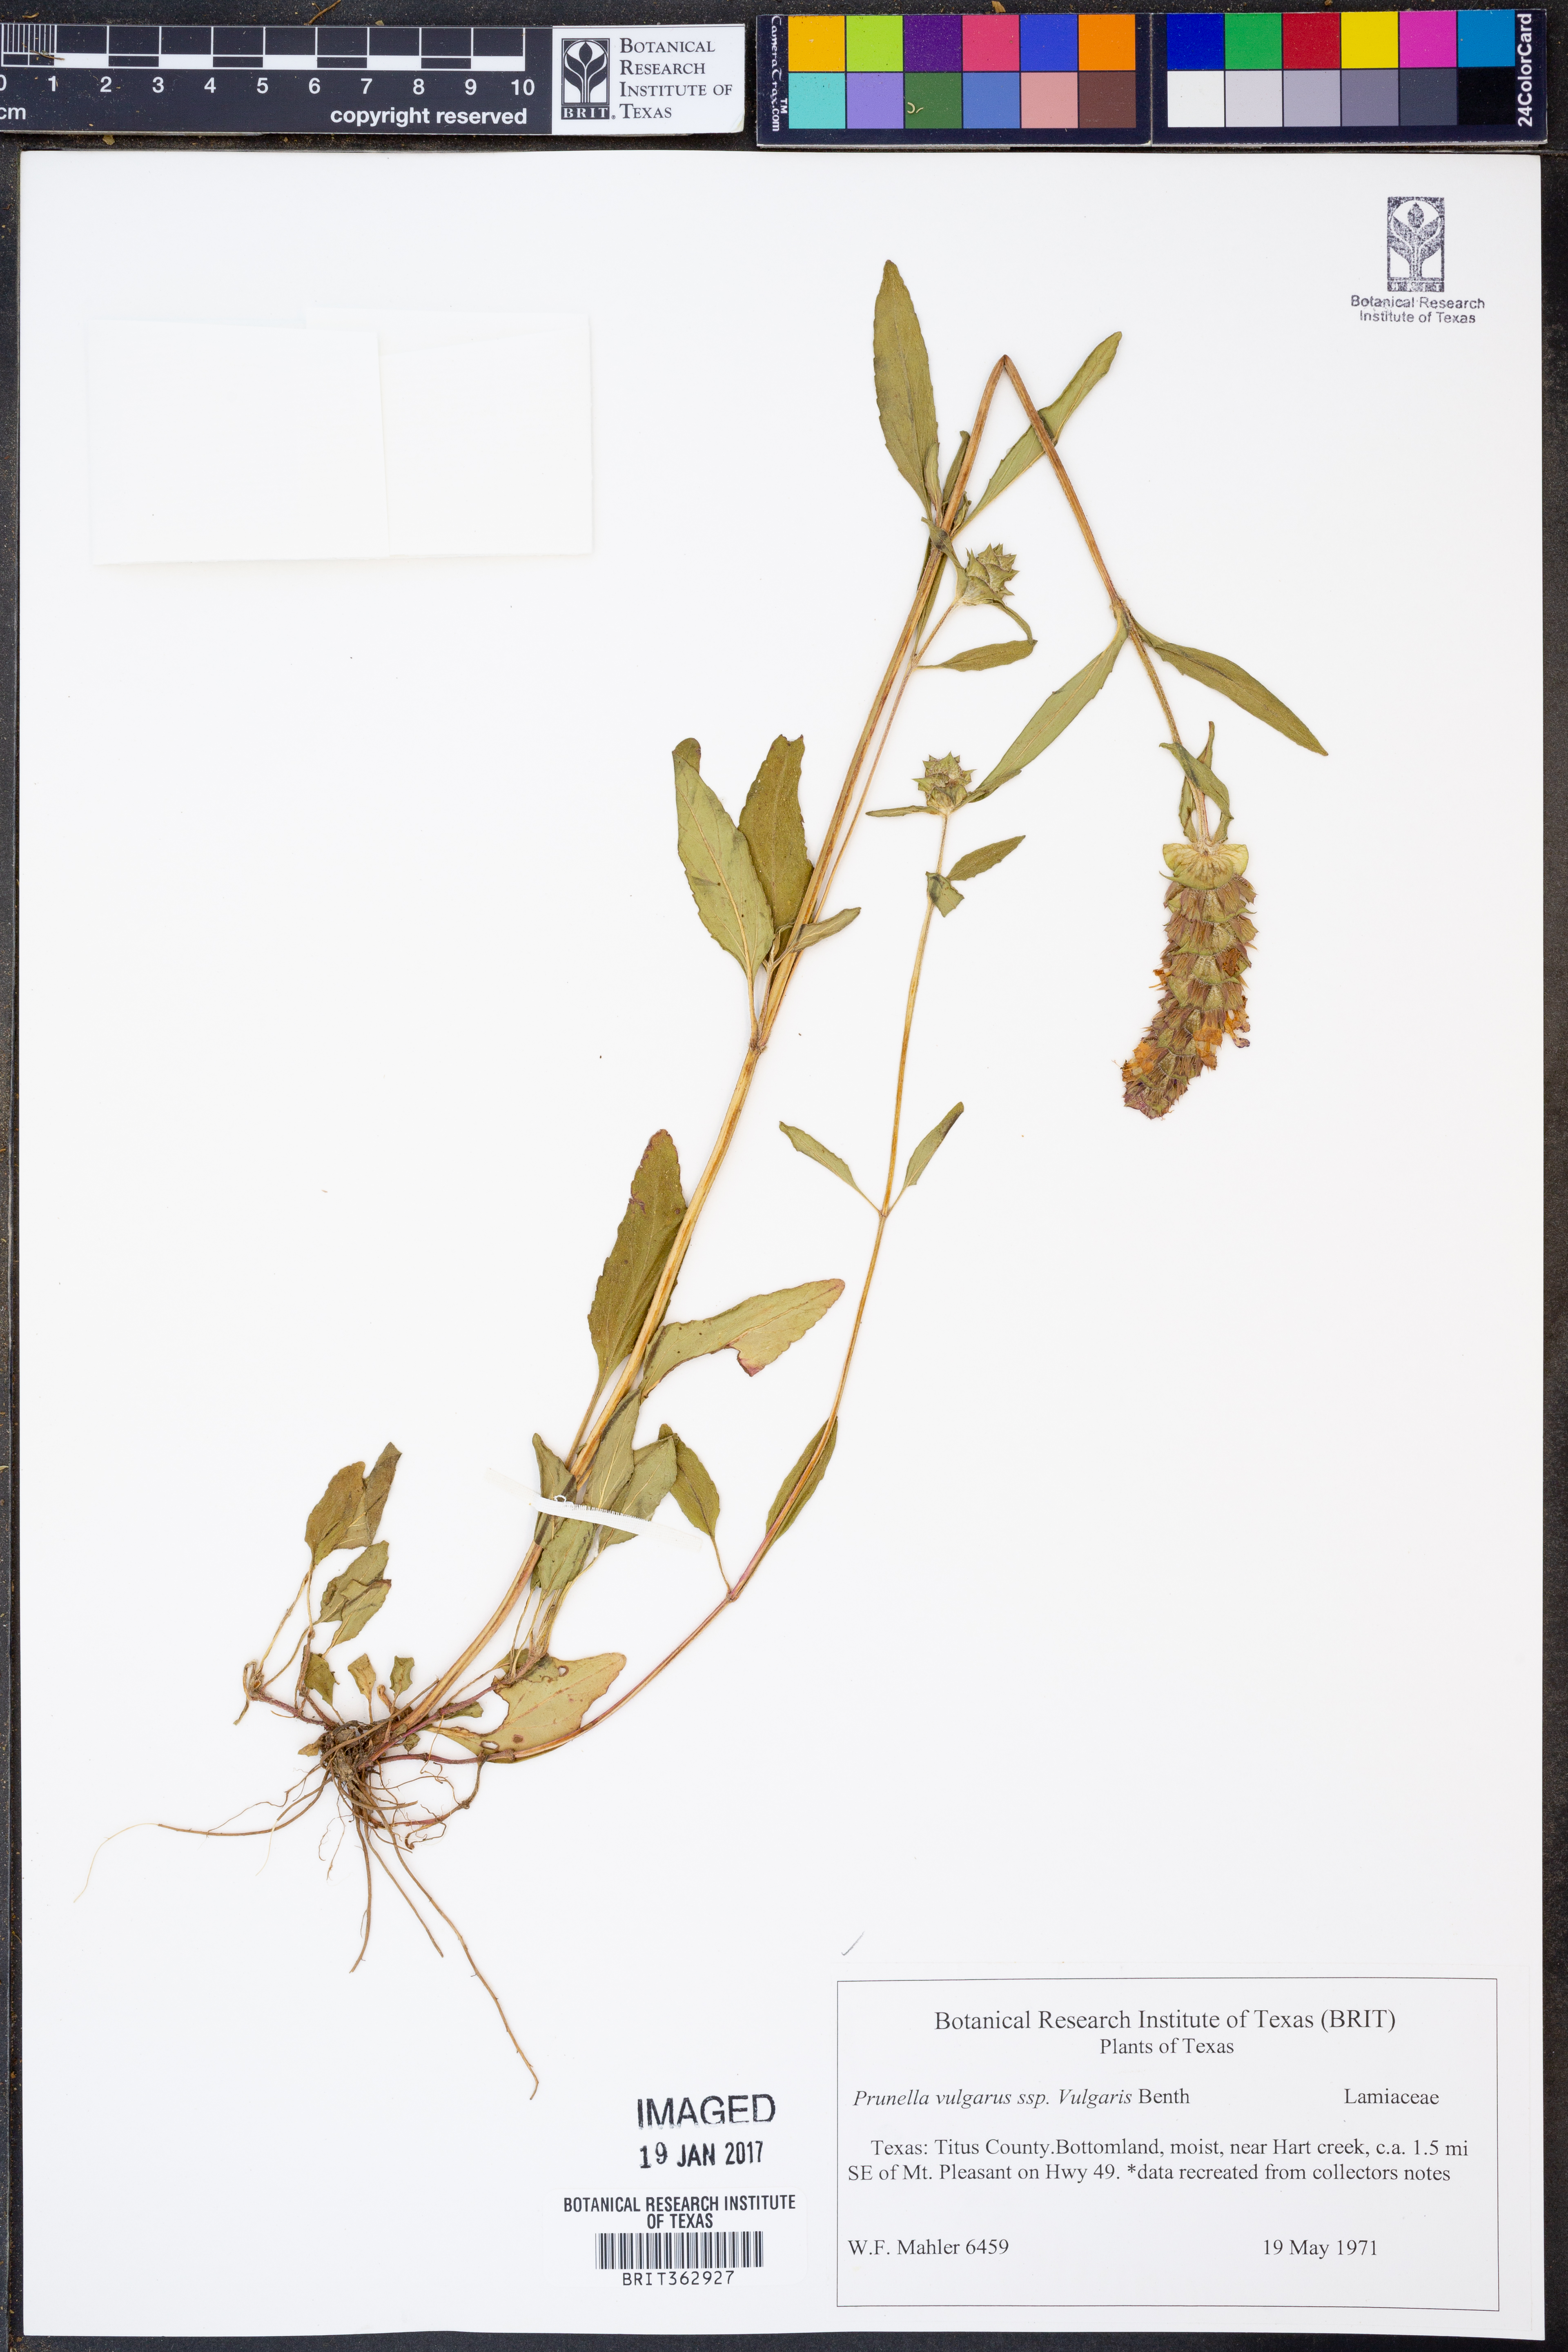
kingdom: Plantae
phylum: Tracheophyta
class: Magnoliopsida
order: Lamiales
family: Lamiaceae
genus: Prunella
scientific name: Prunella vulgaris
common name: Heal-all
